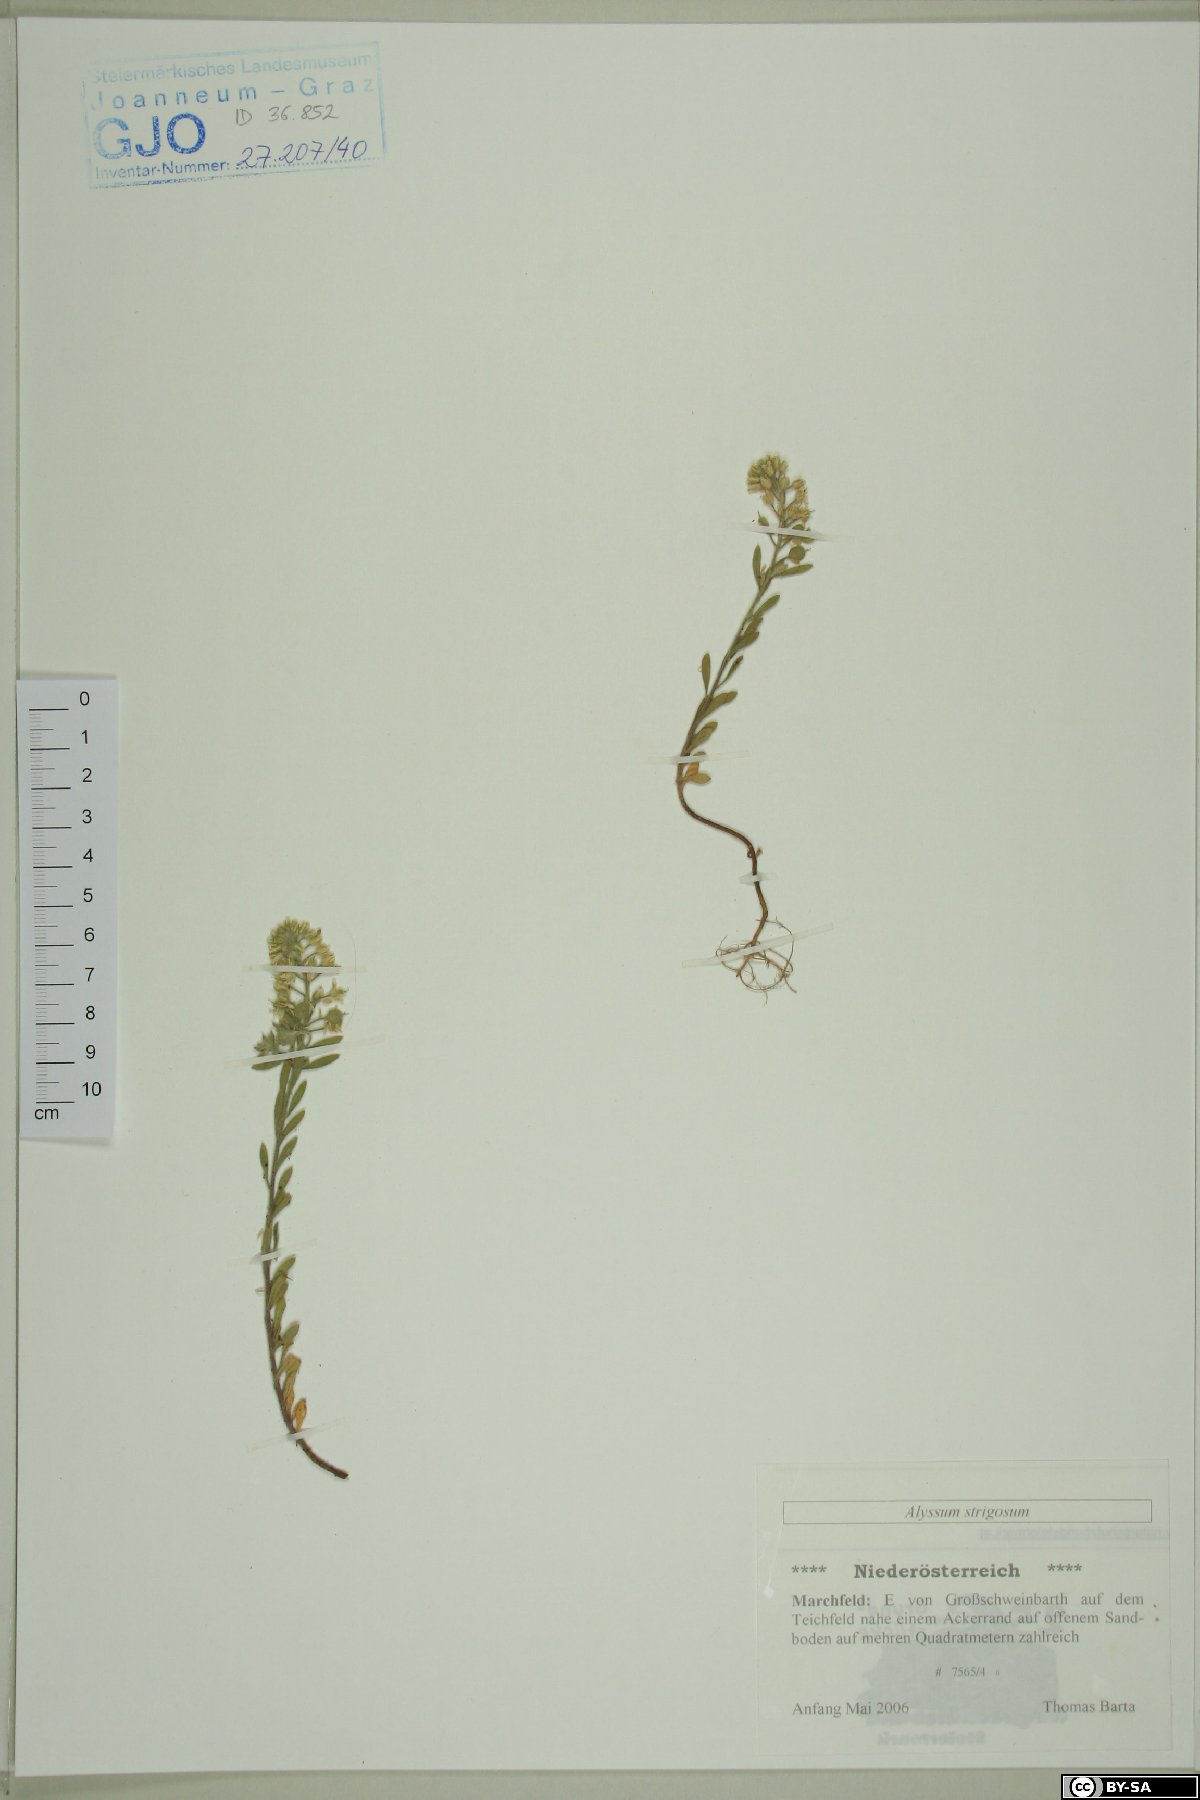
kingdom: Plantae
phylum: Tracheophyta
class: Magnoliopsida
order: Brassicales
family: Brassicaceae
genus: Alyssum
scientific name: Alyssum strigosum
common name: Alyssum
